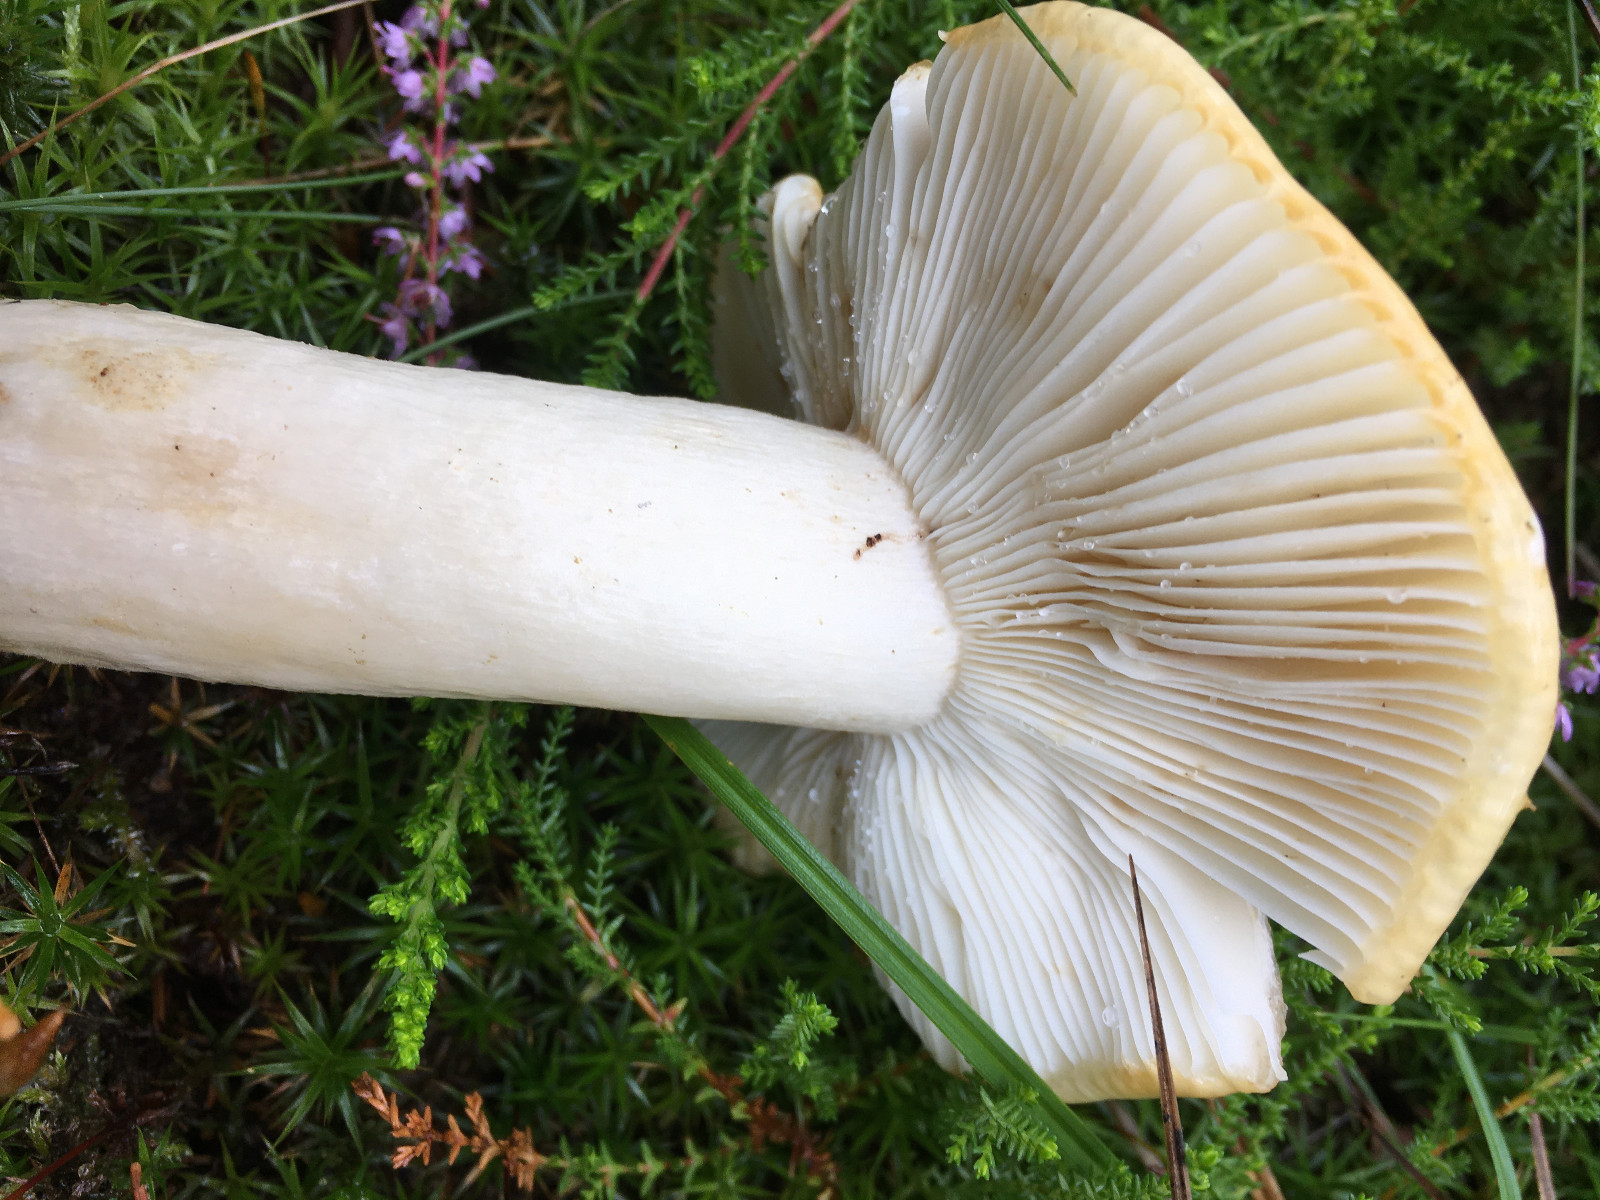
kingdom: Fungi
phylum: Basidiomycota
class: Agaricomycetes
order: Russulales
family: Russulaceae
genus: Russula
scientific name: Russula
